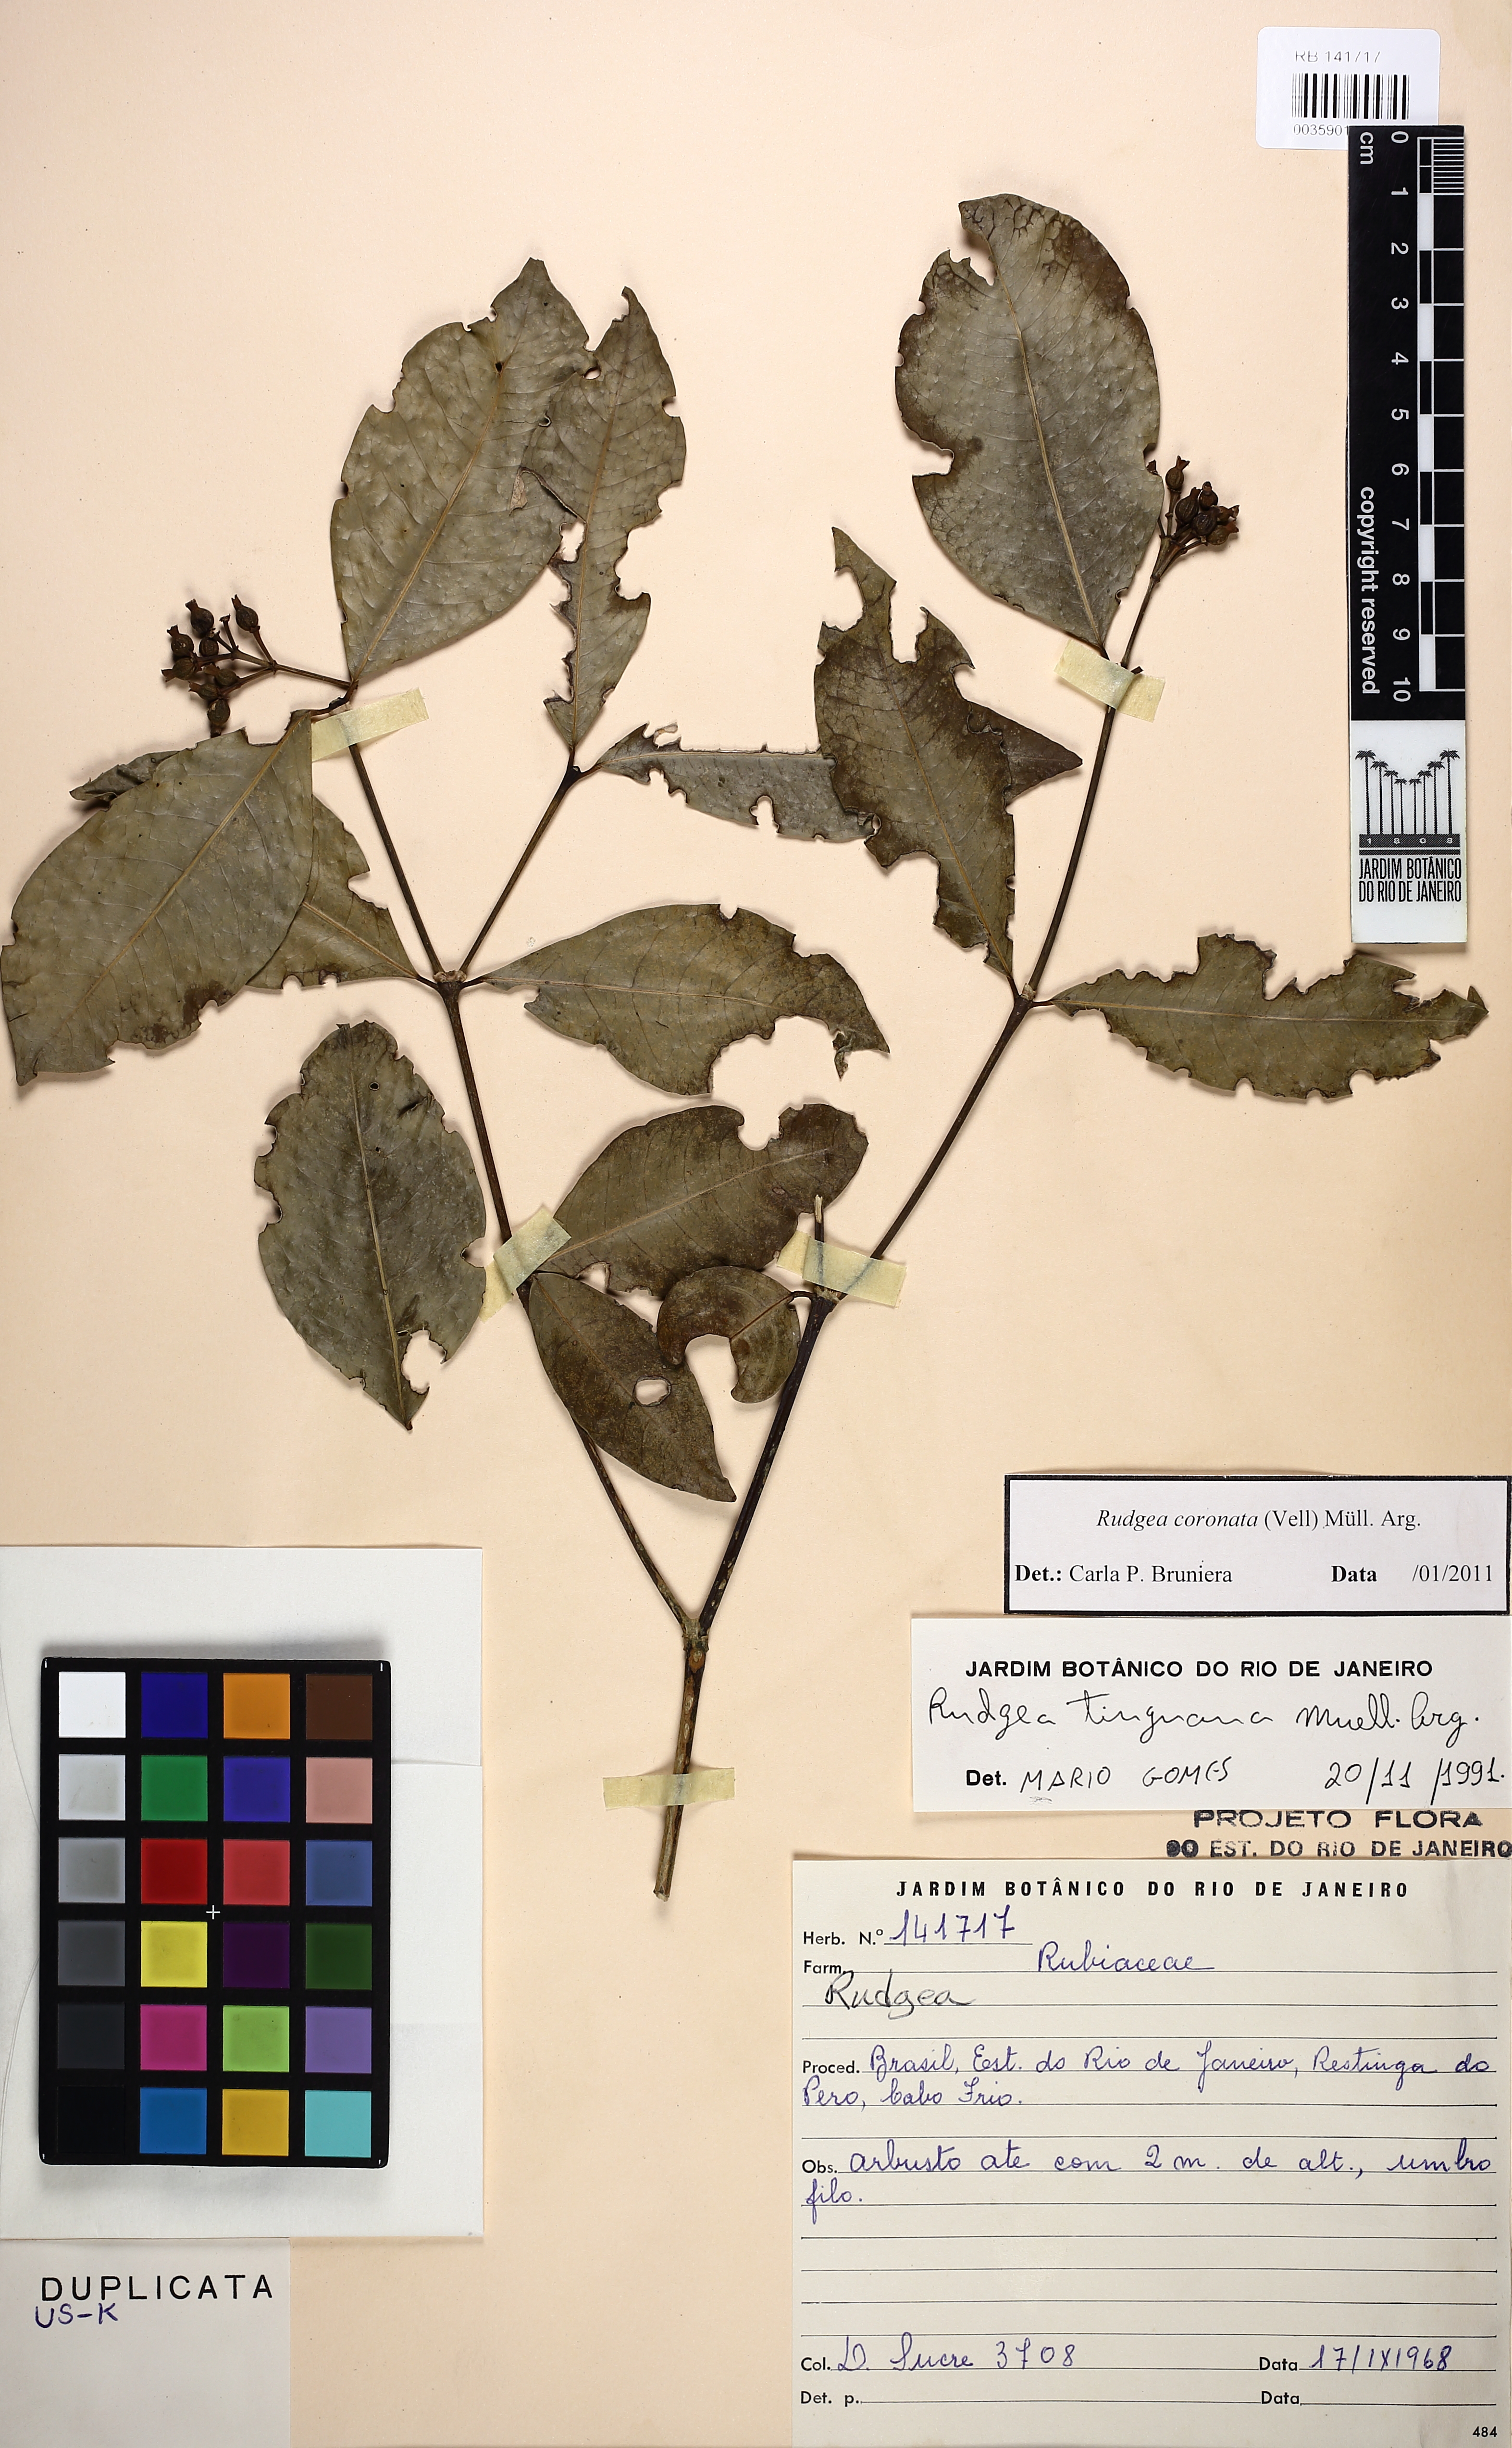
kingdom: Plantae
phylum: Tracheophyta
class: Magnoliopsida
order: Gentianales
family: Rubiaceae
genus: Rudgea
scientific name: Rudgea coronata
